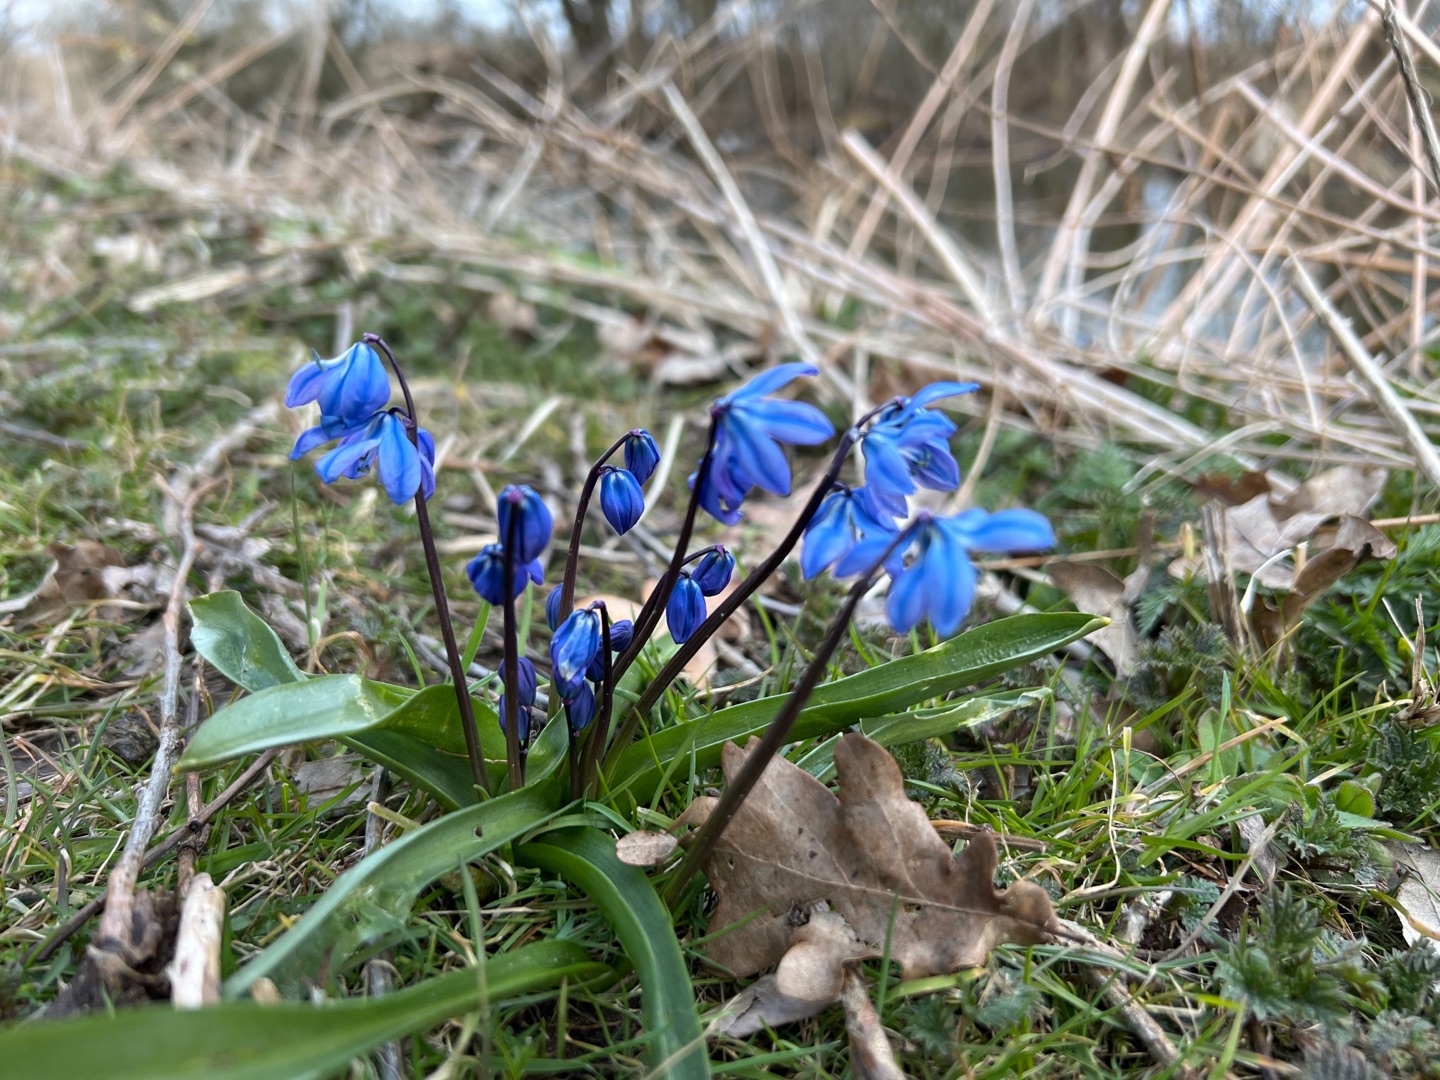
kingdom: Plantae
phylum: Tracheophyta
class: Liliopsida
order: Asparagales
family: Asparagaceae
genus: Scilla
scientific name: Scilla siberica
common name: Russisk skilla
